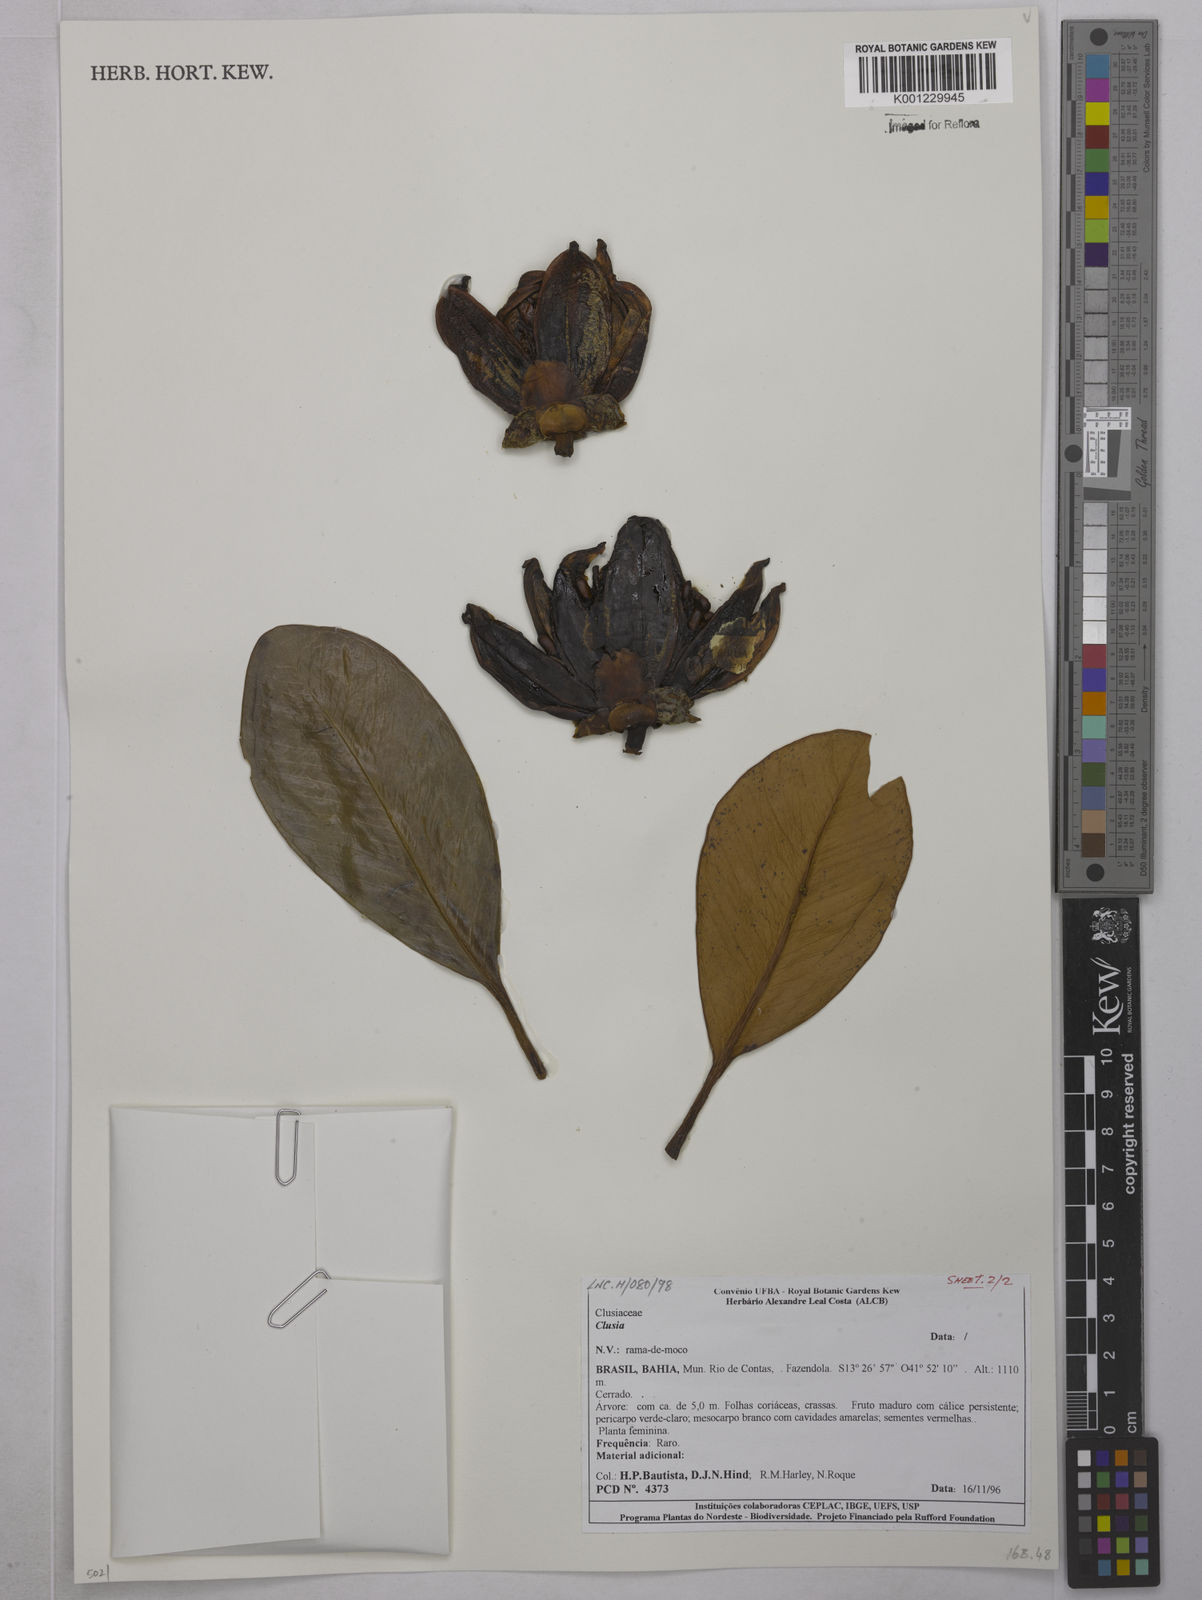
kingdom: Plantae
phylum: Tracheophyta
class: Magnoliopsida
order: Malpighiales
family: Clusiaceae
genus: Clusia
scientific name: Clusia
